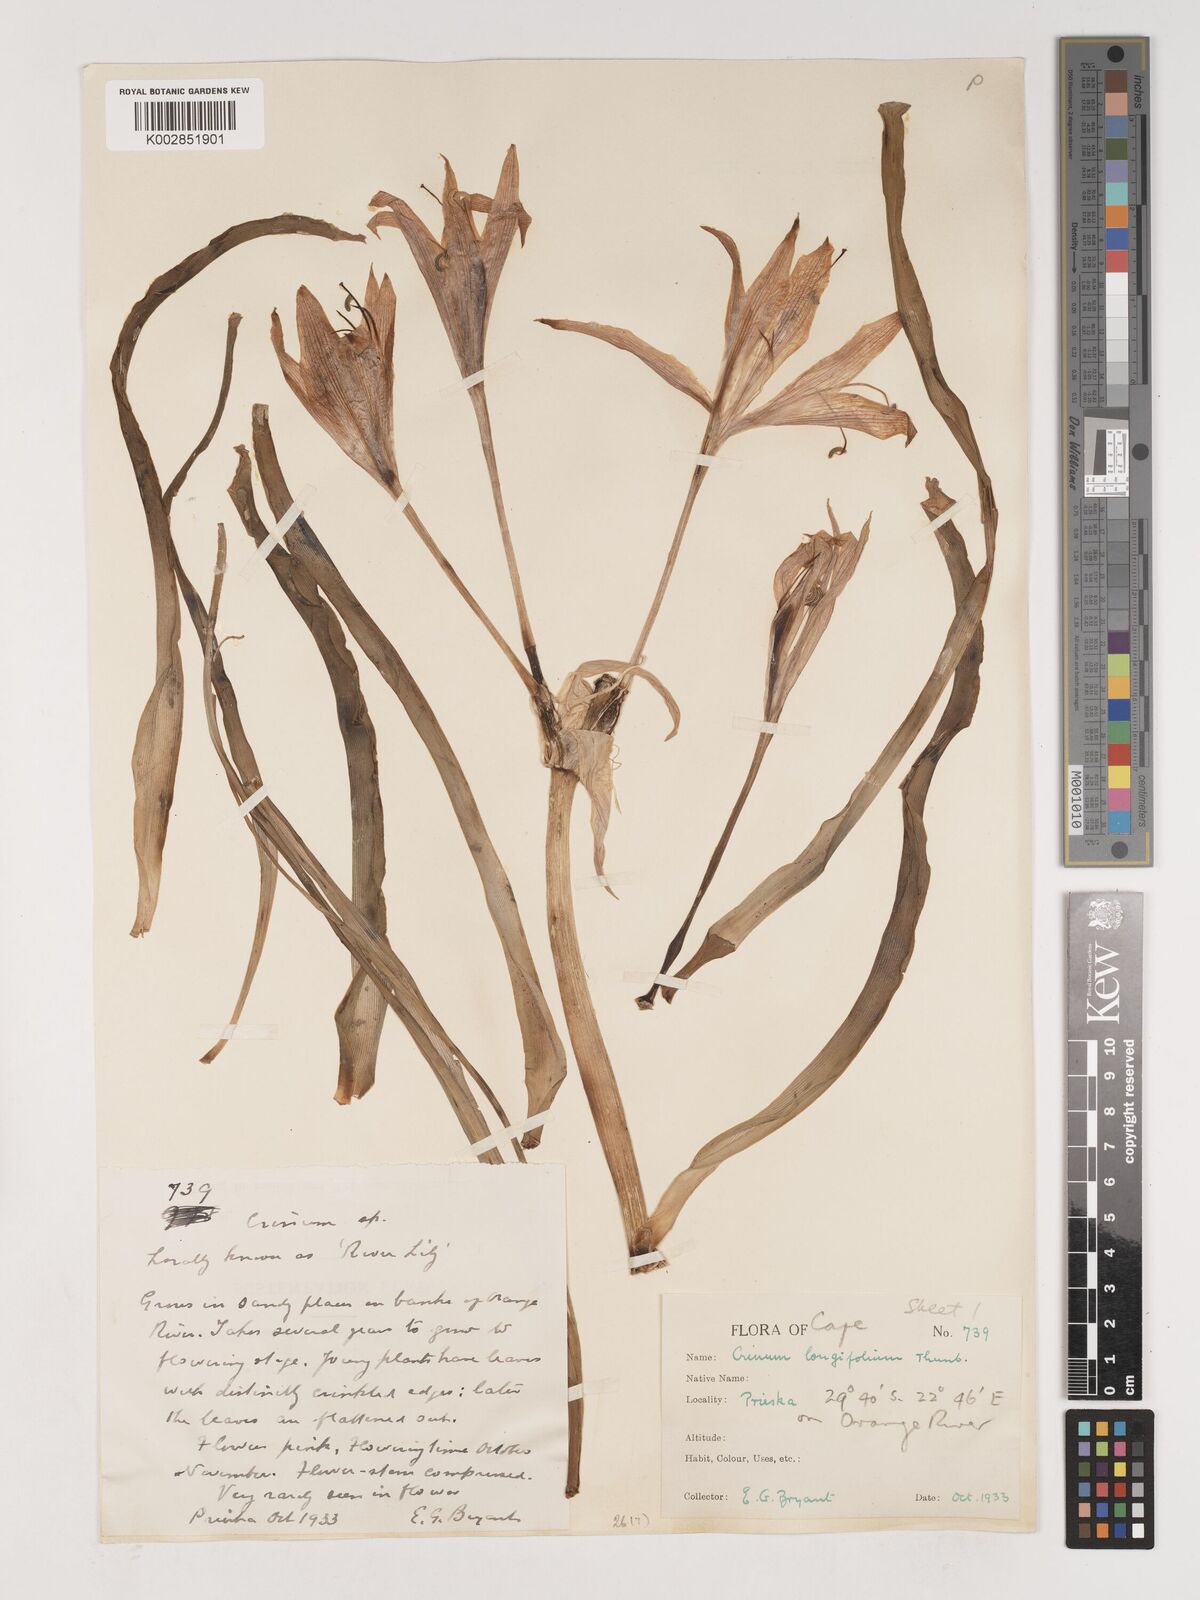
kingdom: Plantae
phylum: Tracheophyta
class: Liliopsida
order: Asparagales
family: Amaryllidaceae
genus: Crinum
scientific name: Crinum bulbispermum
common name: Hardy swamplily
